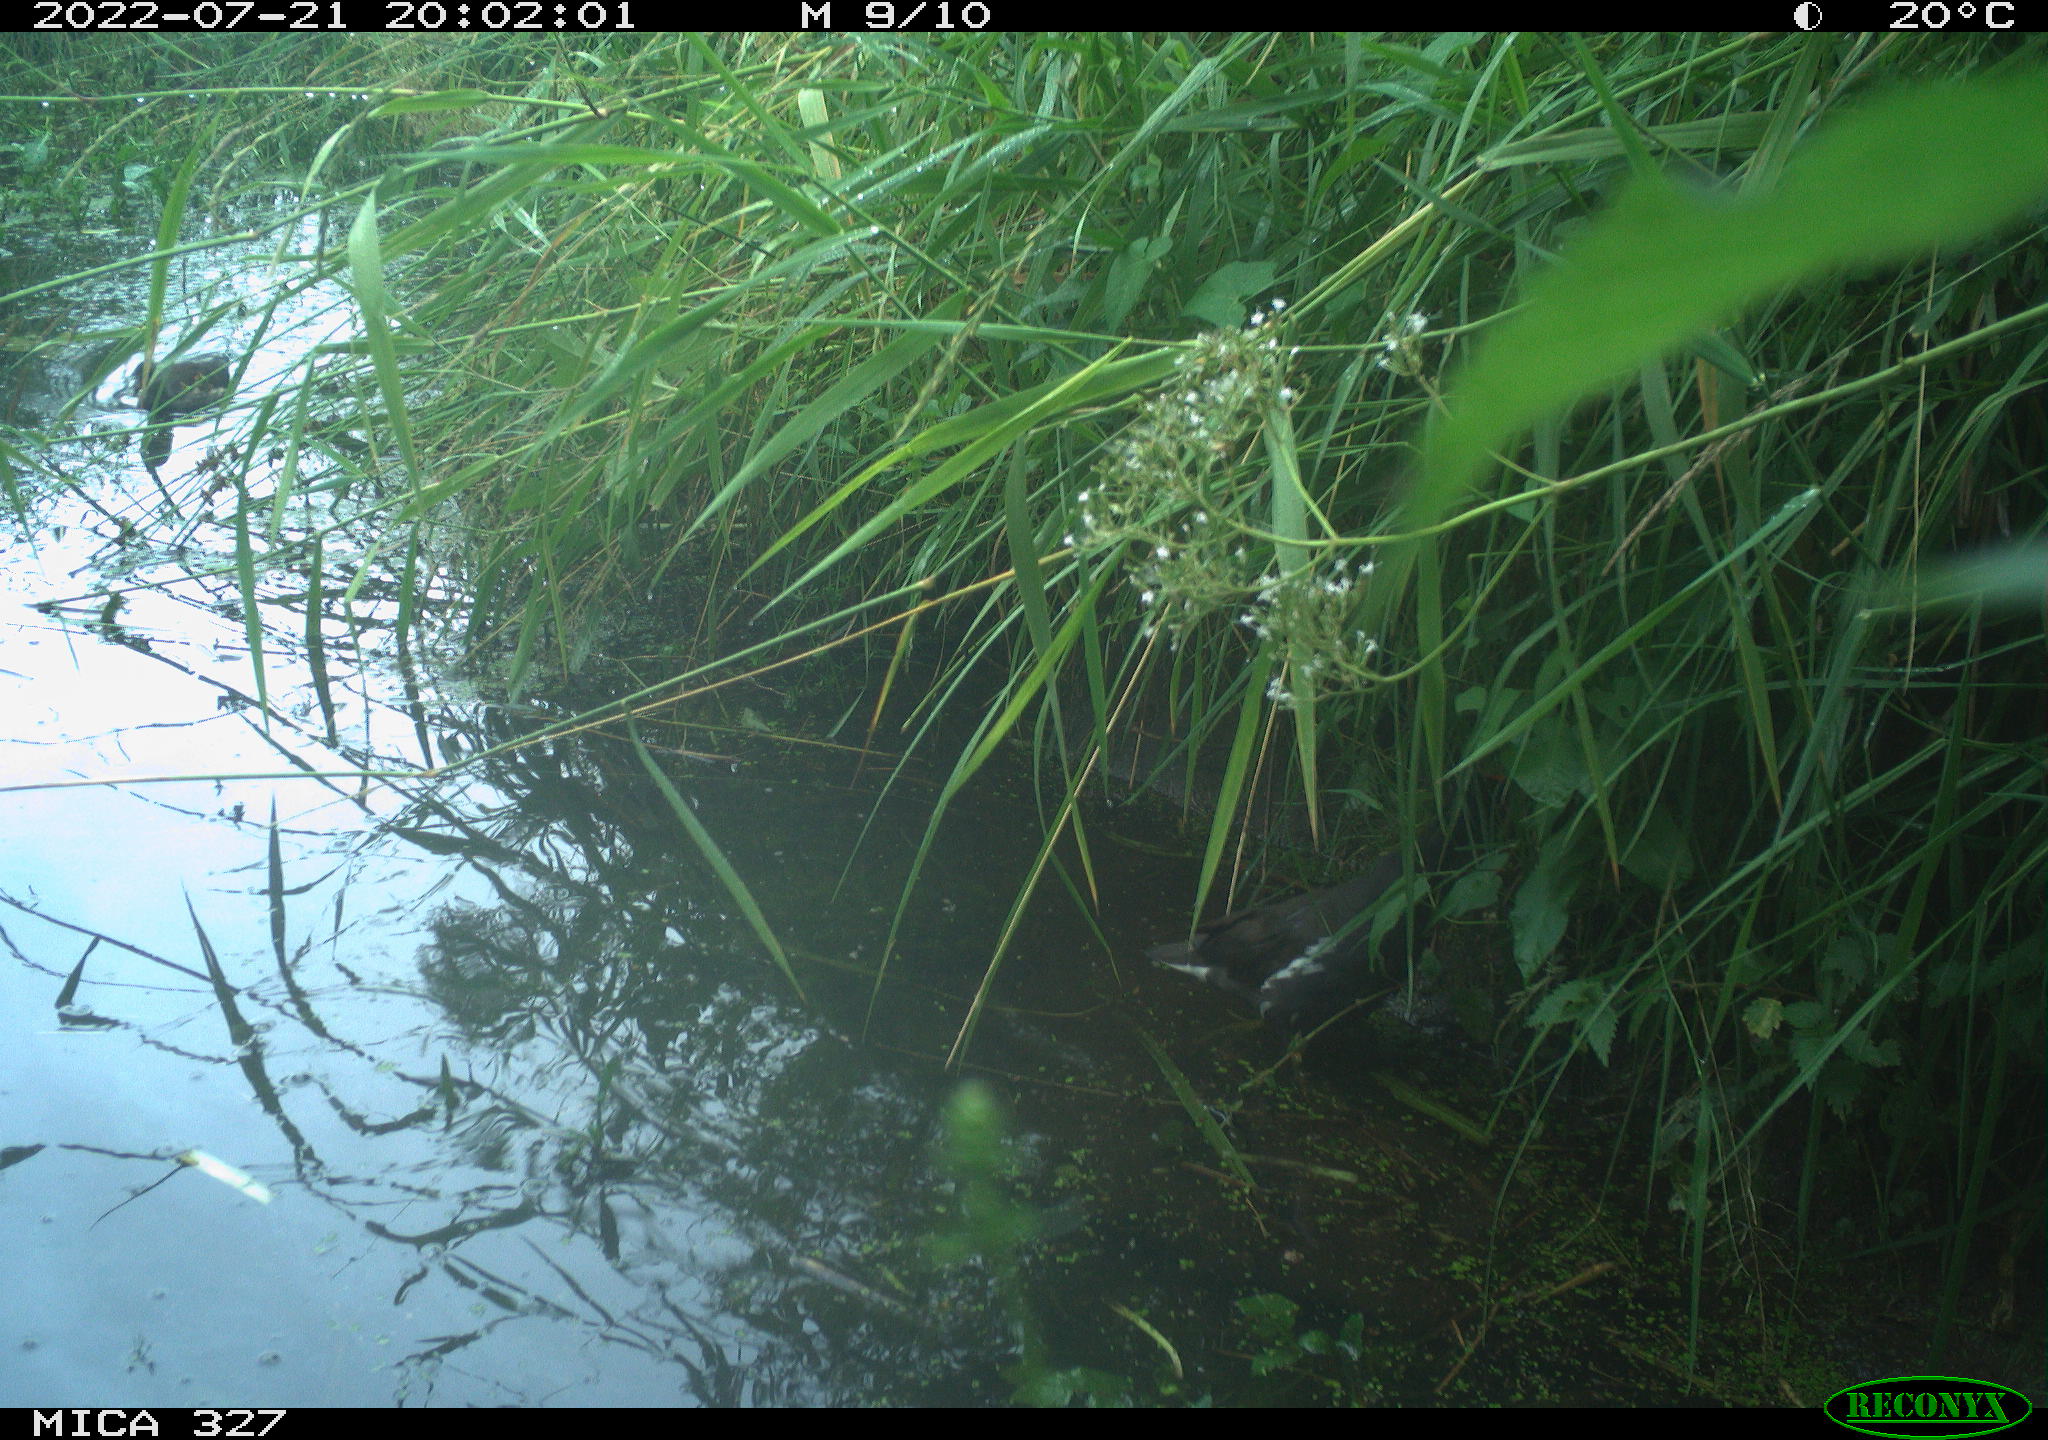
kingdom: Animalia
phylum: Chordata
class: Aves
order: Gruiformes
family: Rallidae
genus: Gallinula
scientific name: Gallinula chloropus
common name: Common moorhen
